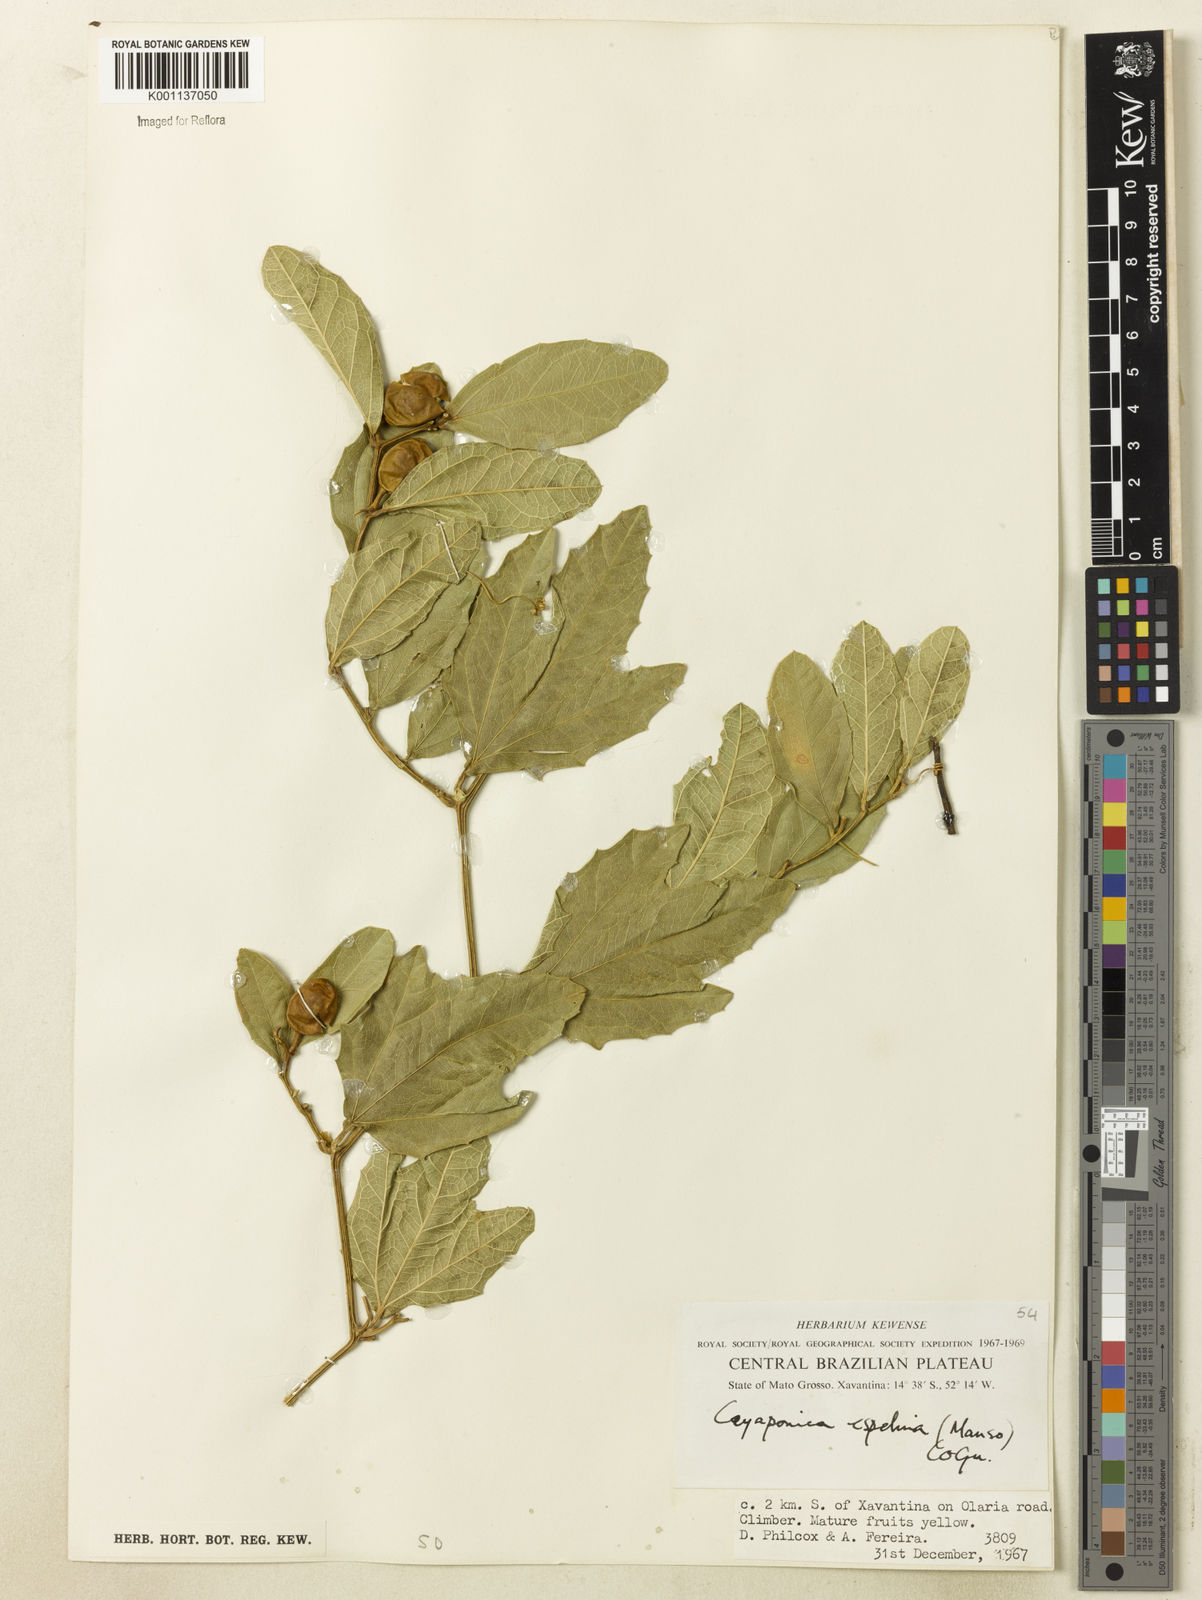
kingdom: Plantae
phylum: Tracheophyta
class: Magnoliopsida
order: Cucurbitales
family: Cucurbitaceae
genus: Cayaponia
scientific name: Cayaponia espelina
